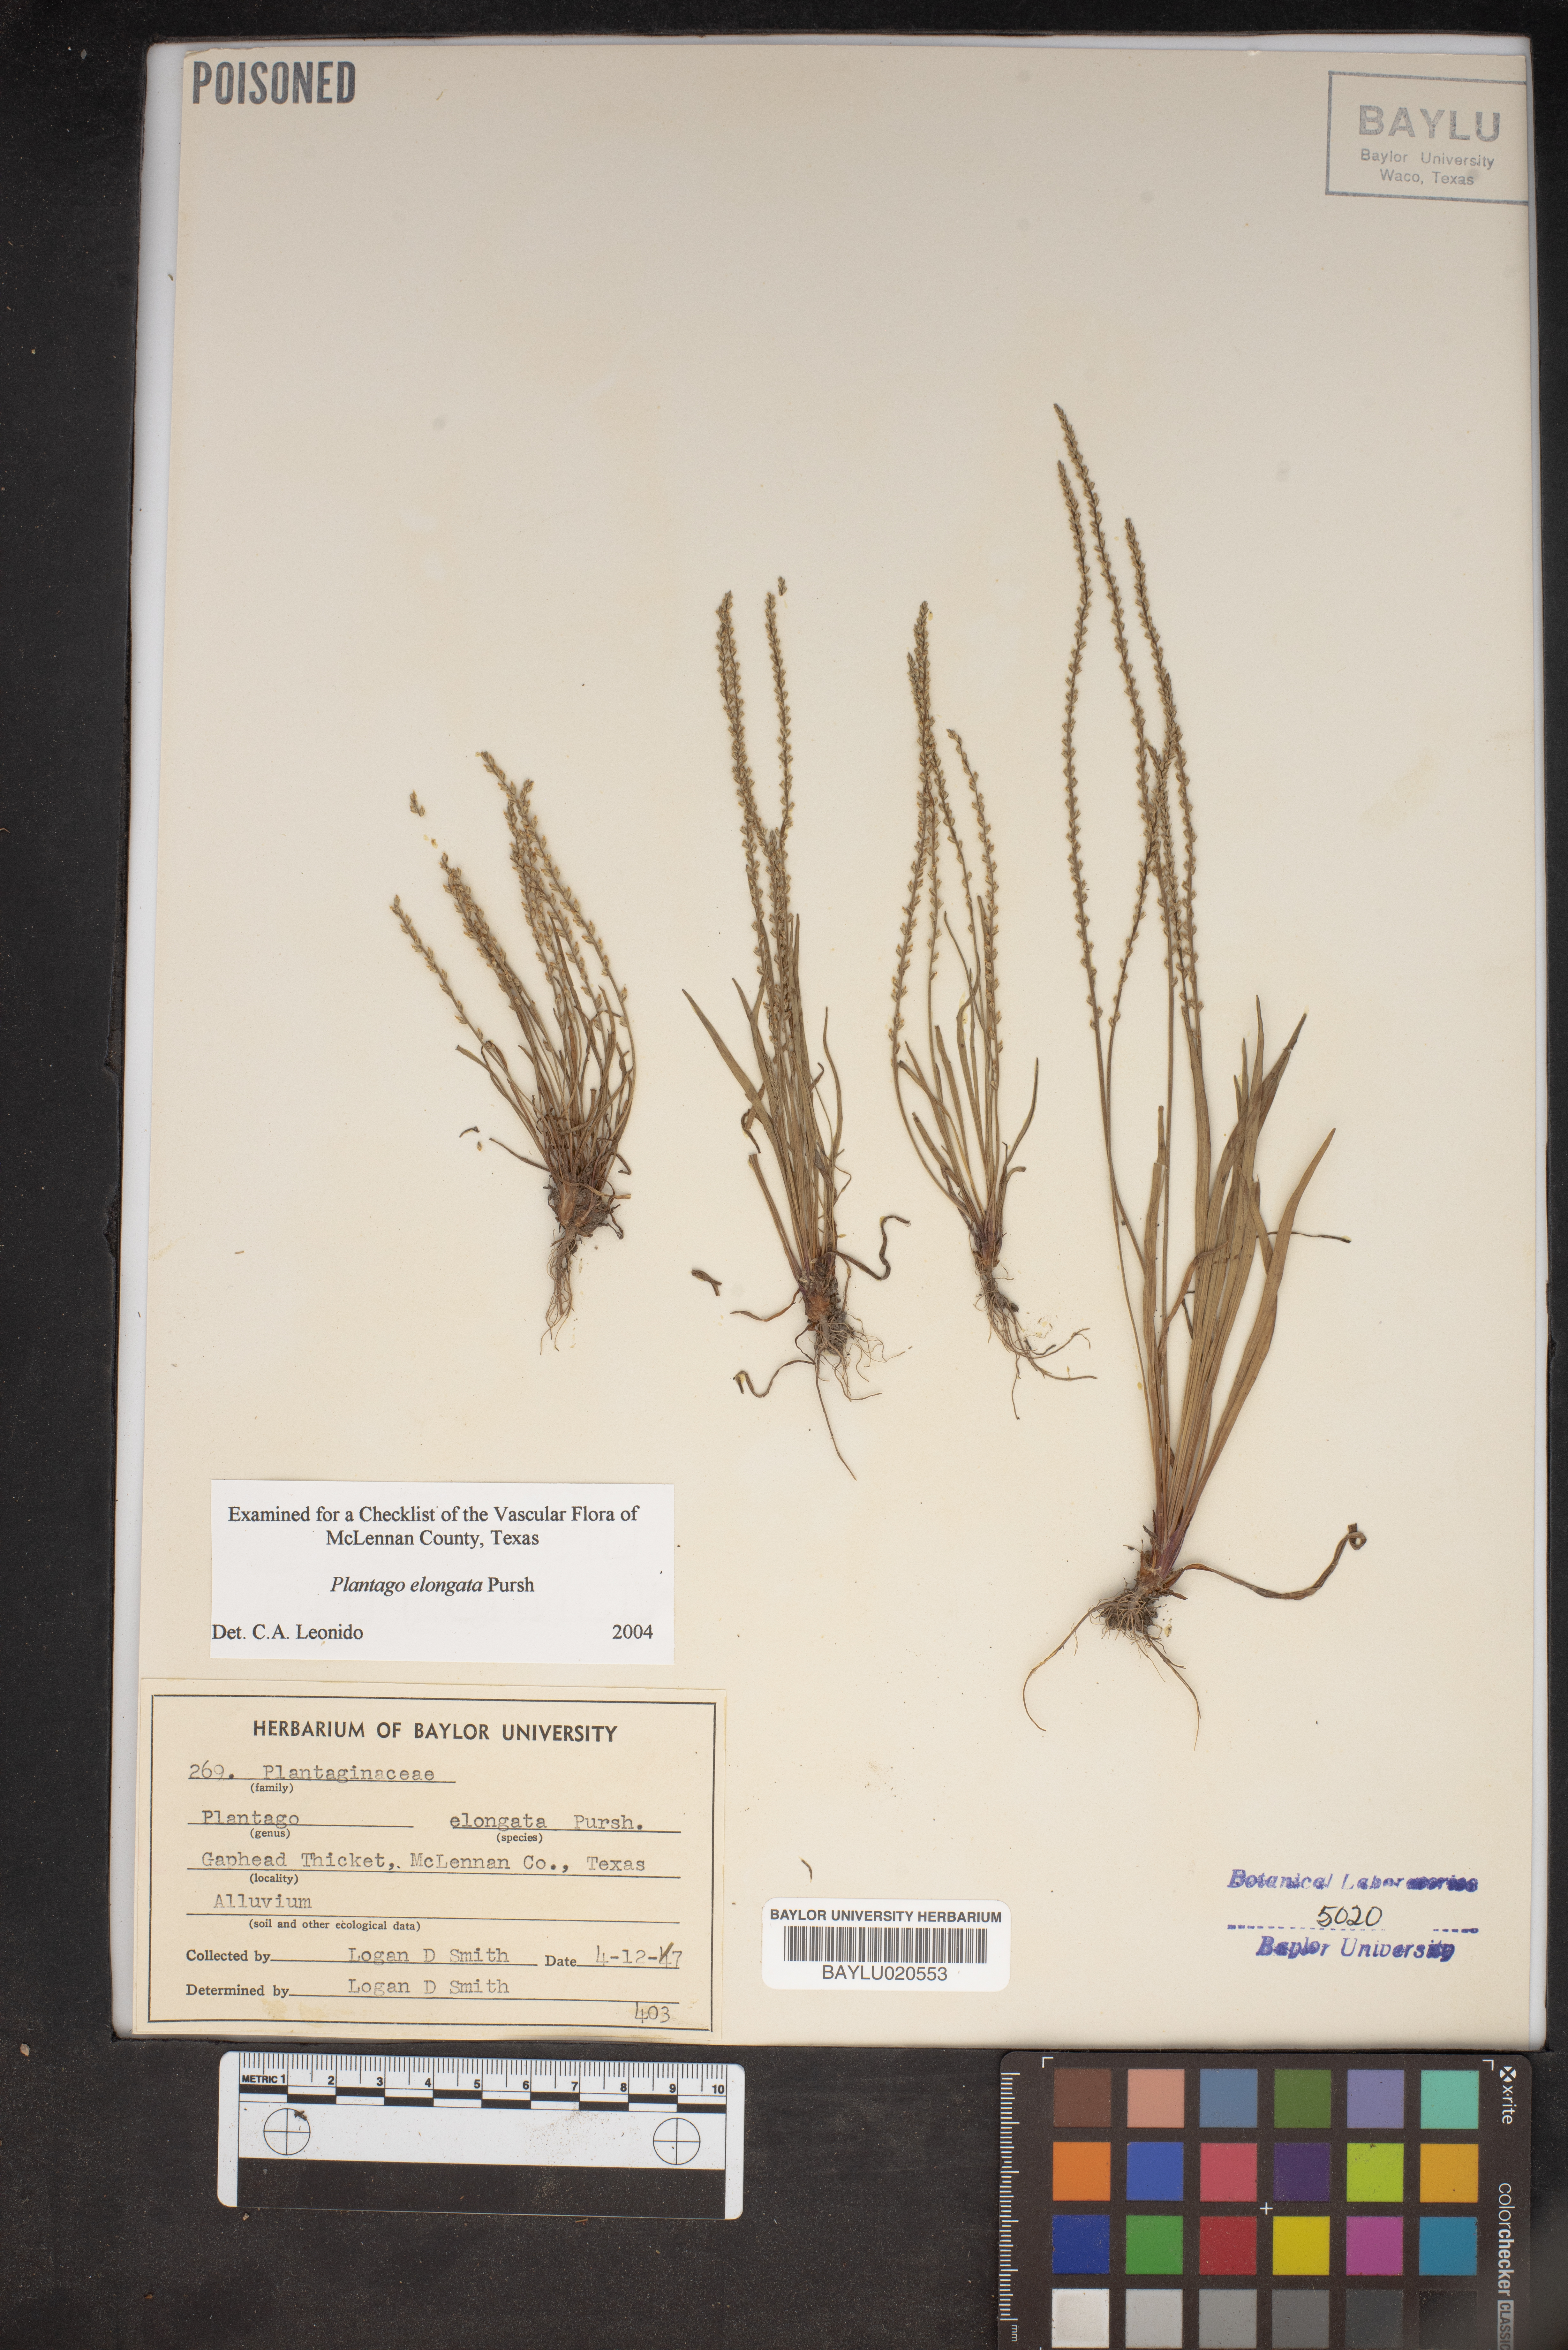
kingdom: Plantae
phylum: Tracheophyta
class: Magnoliopsida
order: Lamiales
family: Plantaginaceae
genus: Plantago
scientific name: Plantago elongata
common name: Linear-leaved plantain
